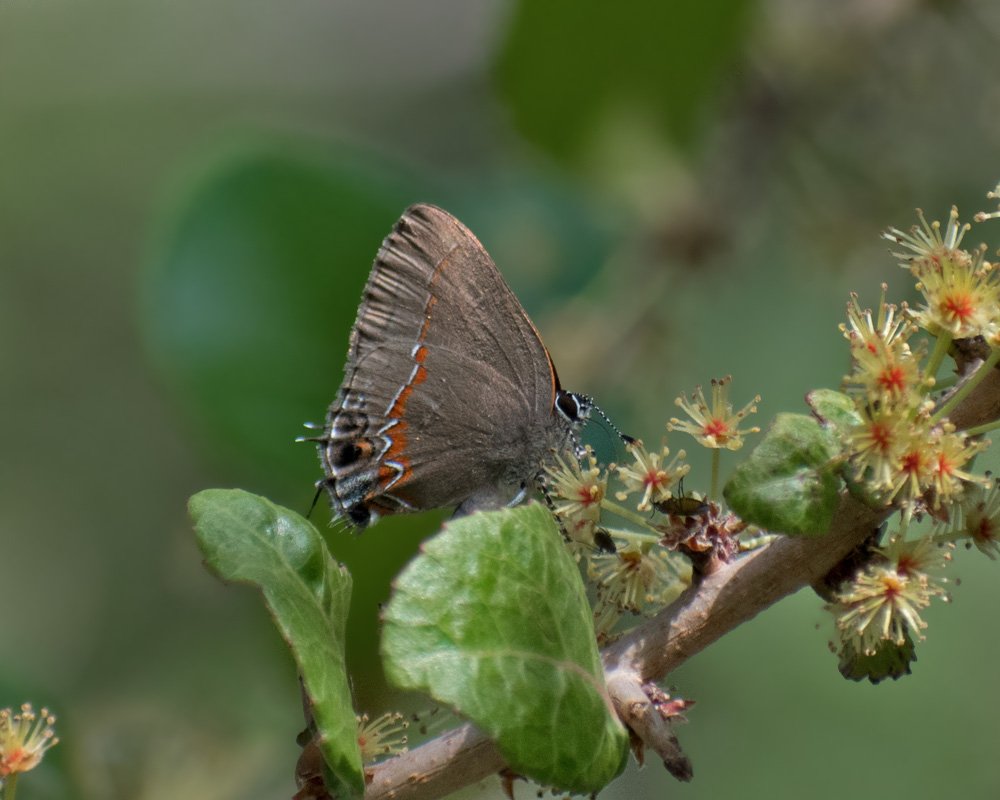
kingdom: Animalia
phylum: Arthropoda
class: Insecta
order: Lepidoptera
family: Lycaenidae
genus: Calycopis
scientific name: Calycopis isobeon
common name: Dusky-blue Groundstreak
